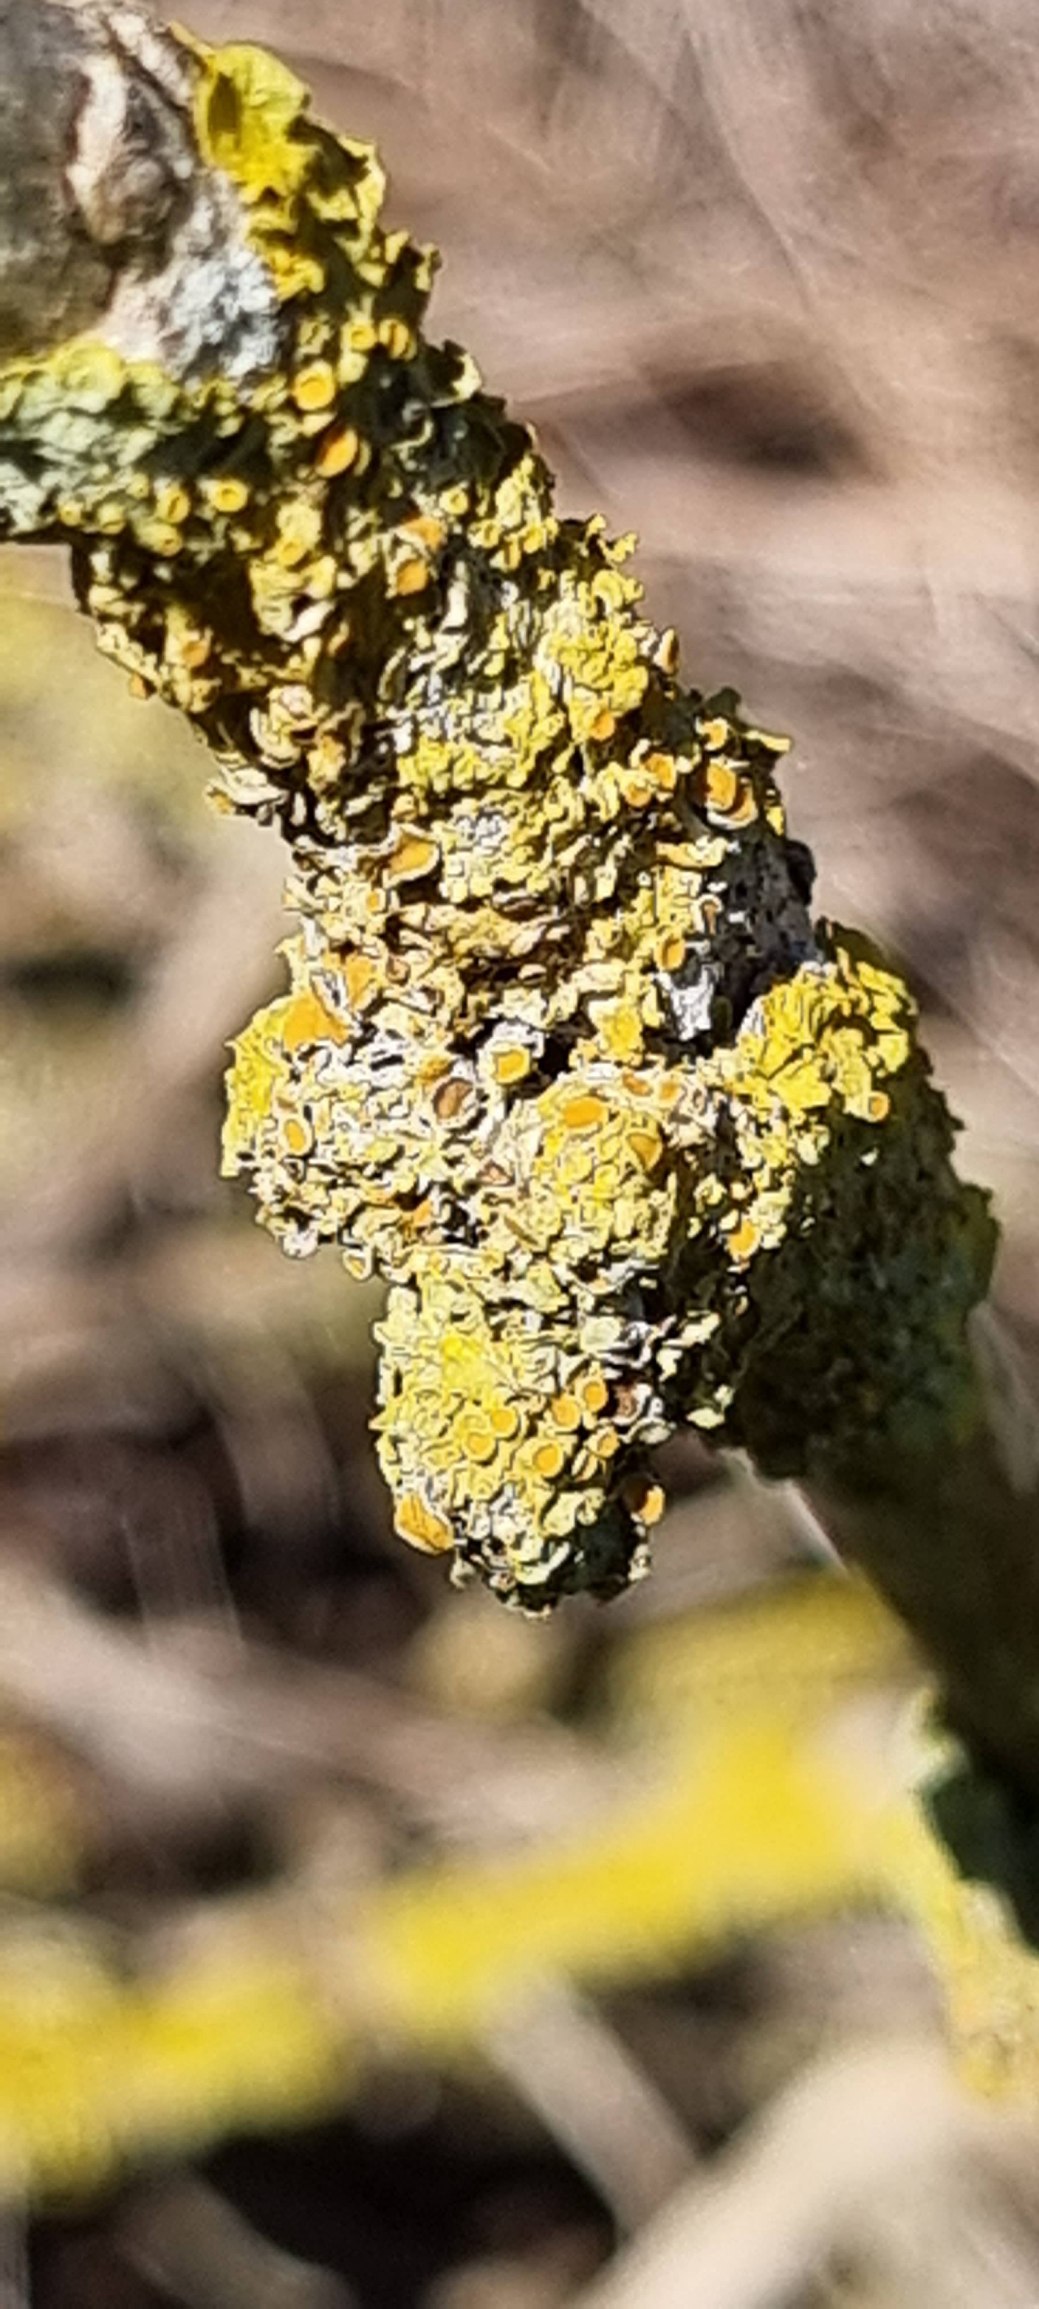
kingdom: Fungi
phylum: Ascomycota
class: Lecanoromycetes
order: Teloschistales
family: Teloschistaceae
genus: Xanthoria
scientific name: Xanthoria parietina
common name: Almindelig væggelav
